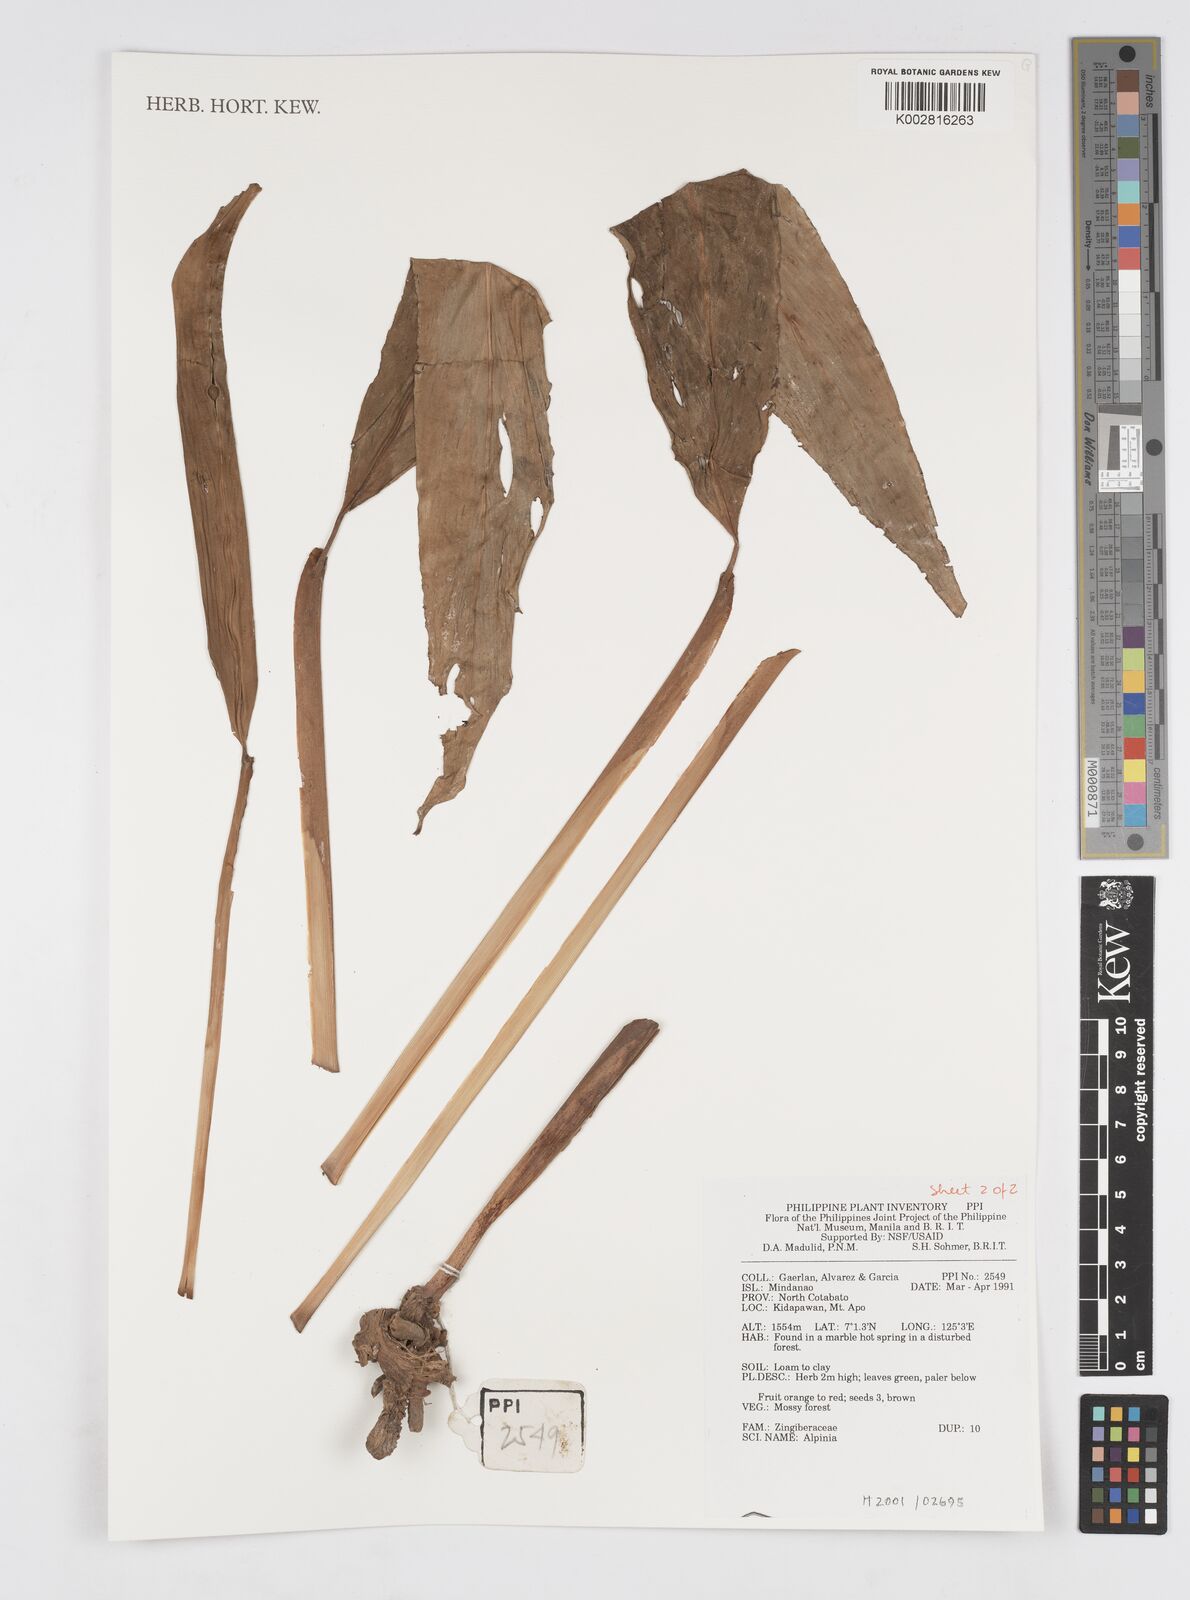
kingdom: Plantae
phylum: Tracheophyta
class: Liliopsida
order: Zingiberales
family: Zingiberaceae
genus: Alpinia
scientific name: Alpinia
